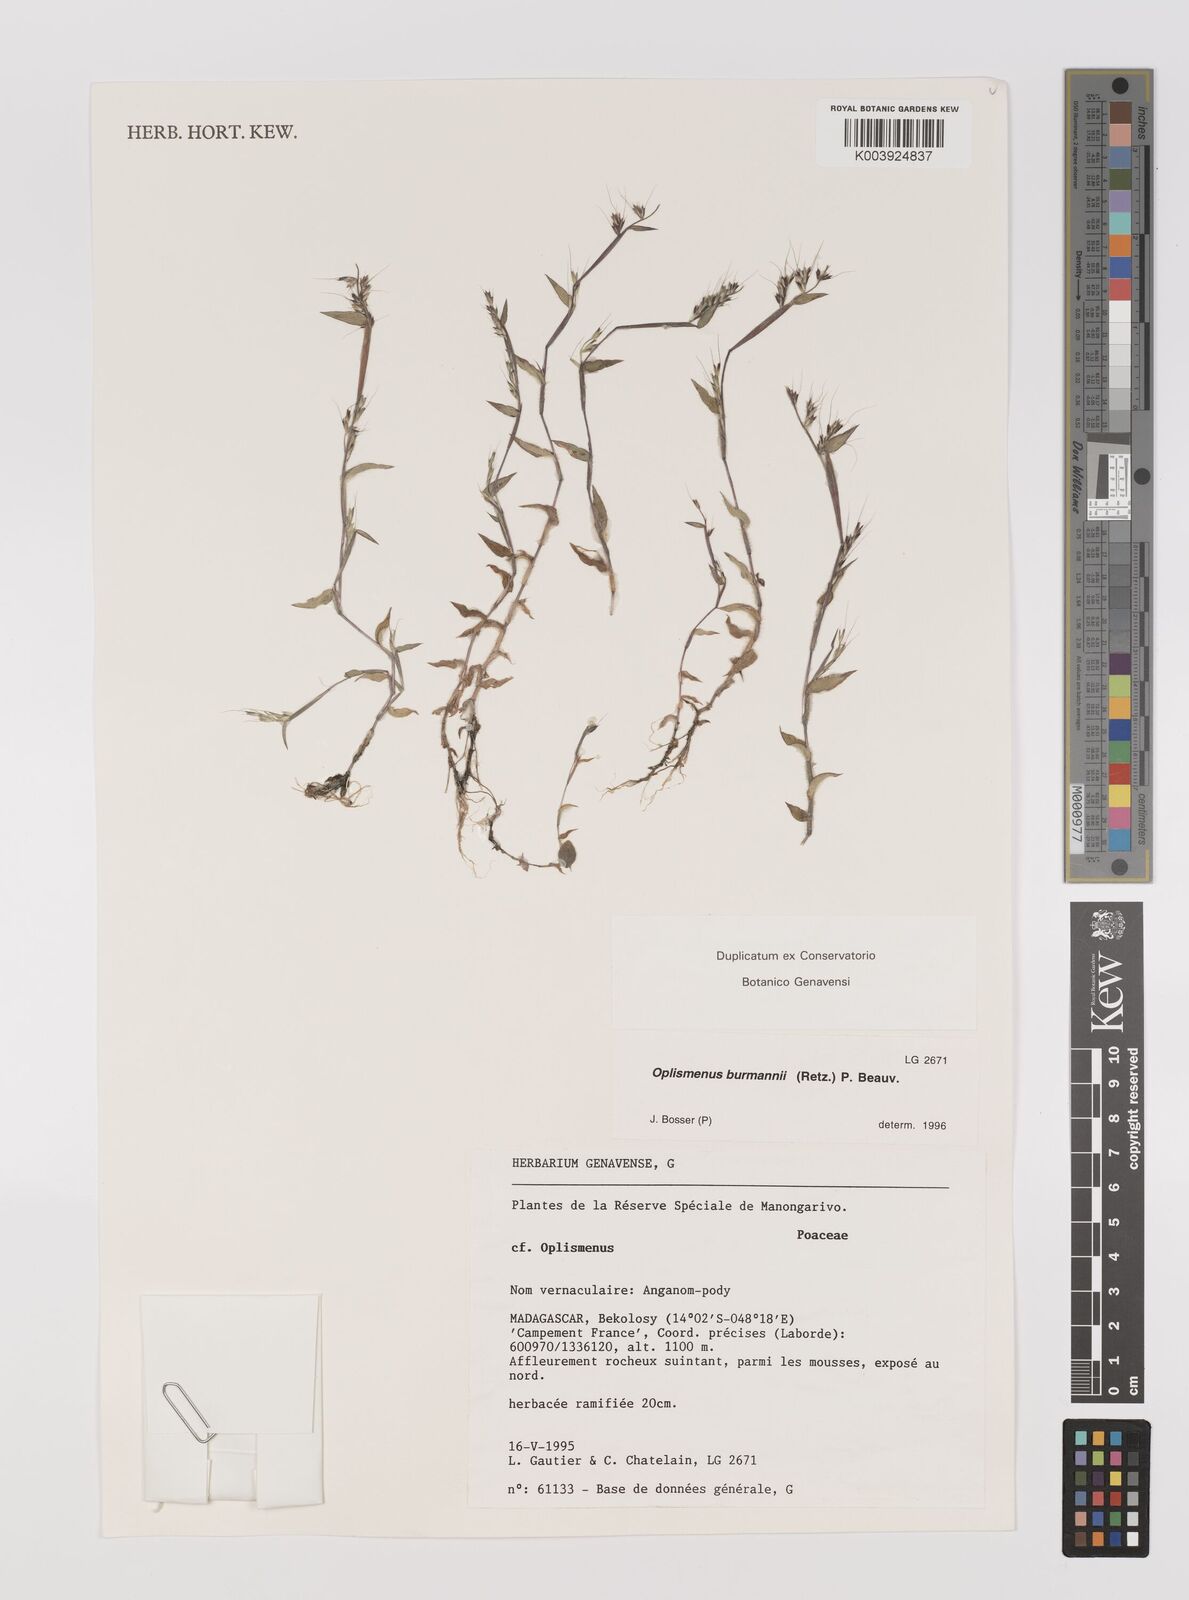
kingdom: Plantae
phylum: Tracheophyta
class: Liliopsida
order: Poales
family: Poaceae
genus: Oplismenus
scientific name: Oplismenus burmanni
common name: Burmann's basketgrass
